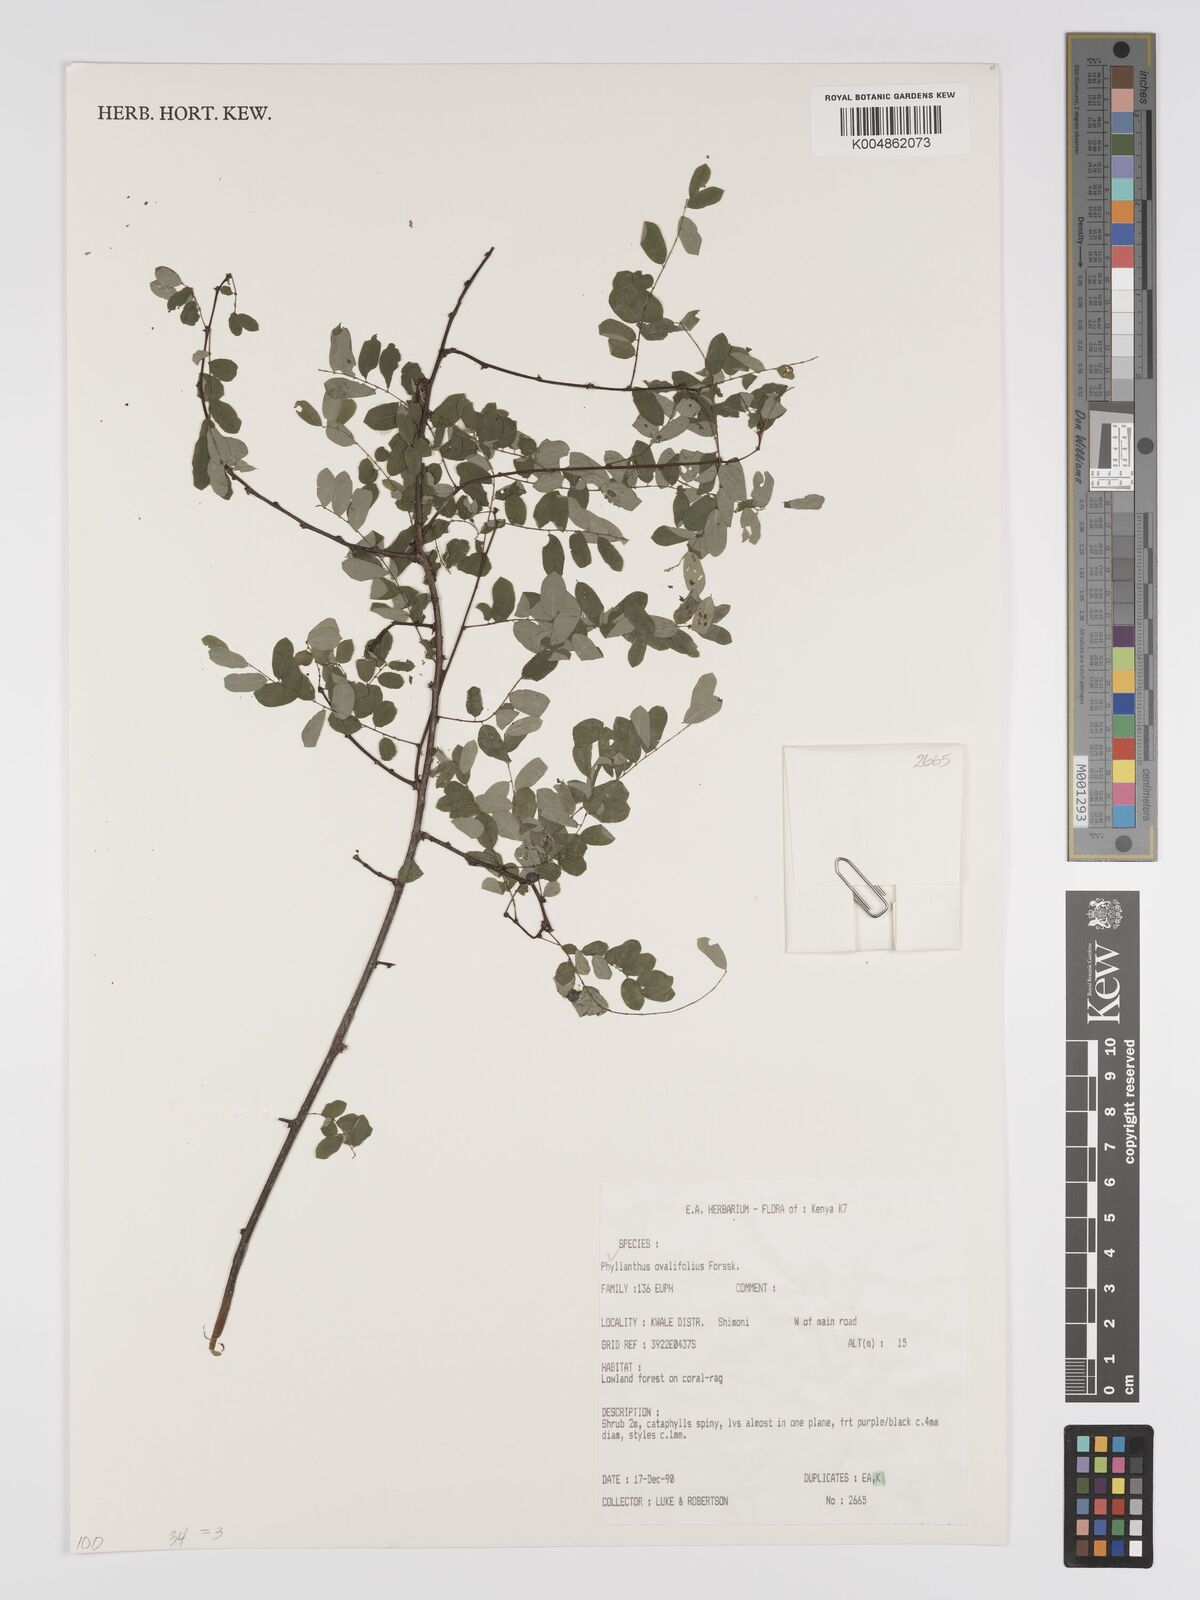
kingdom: Plantae
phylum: Tracheophyta
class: Magnoliopsida
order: Malpighiales
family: Phyllanthaceae
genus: Phyllanthus
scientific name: Phyllanthus ovalifolius
